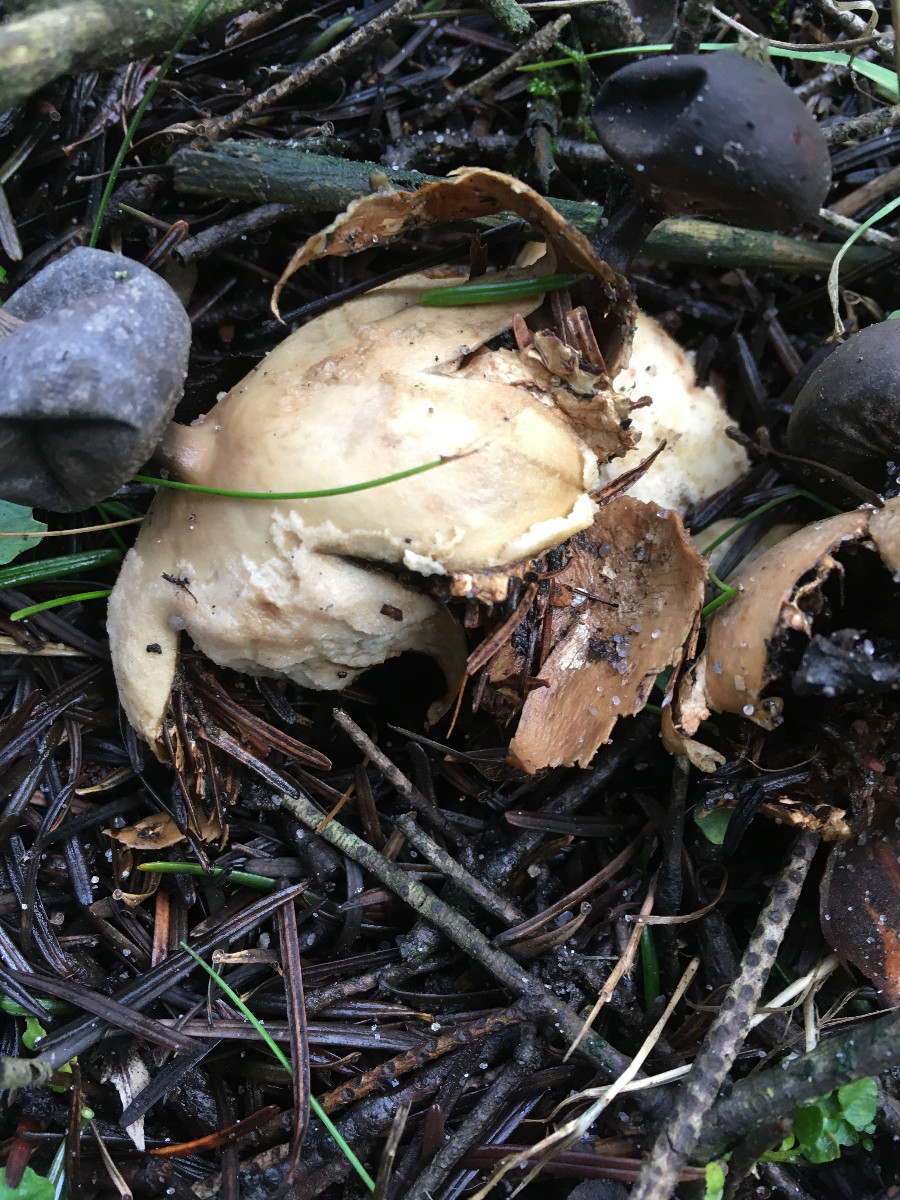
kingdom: Fungi
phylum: Basidiomycota
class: Agaricomycetes
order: Geastrales
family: Geastraceae
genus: Geastrum
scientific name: Geastrum pectinatum
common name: stilket stjernebold
